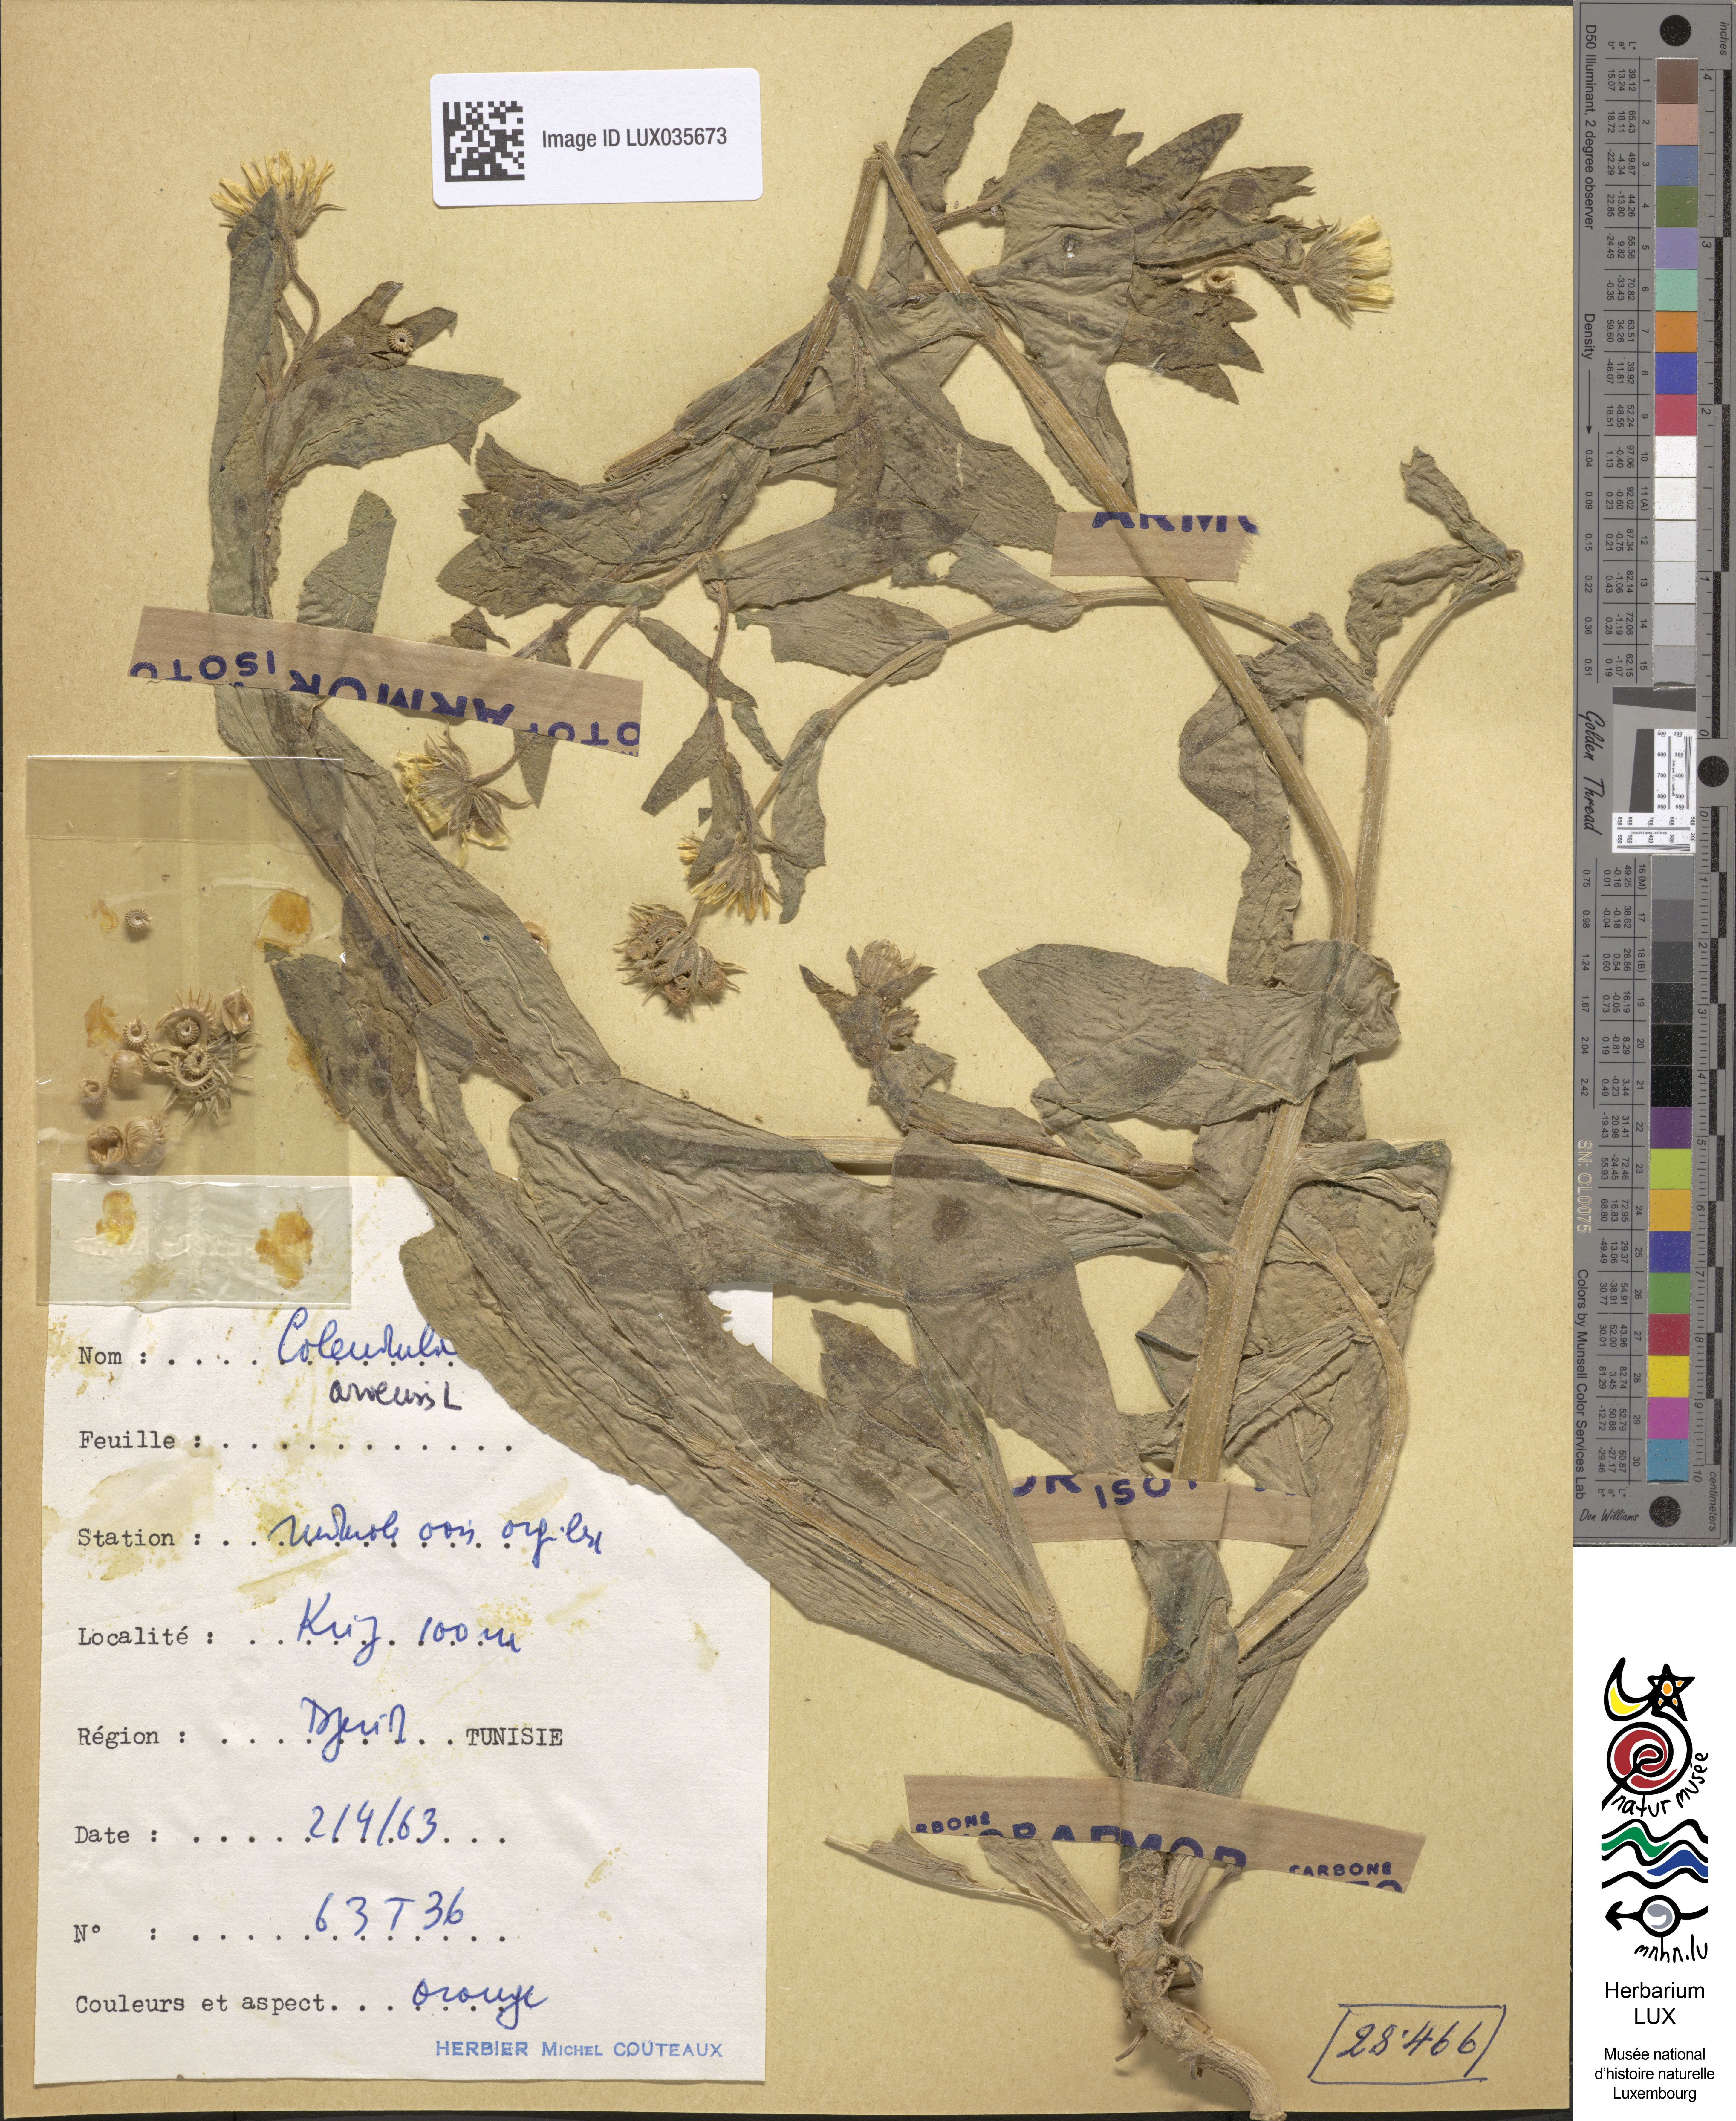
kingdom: Plantae
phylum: Tracheophyta
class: Magnoliopsida
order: Asterales
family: Asteraceae
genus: Calendula
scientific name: Calendula arvensis
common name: Field marigold
